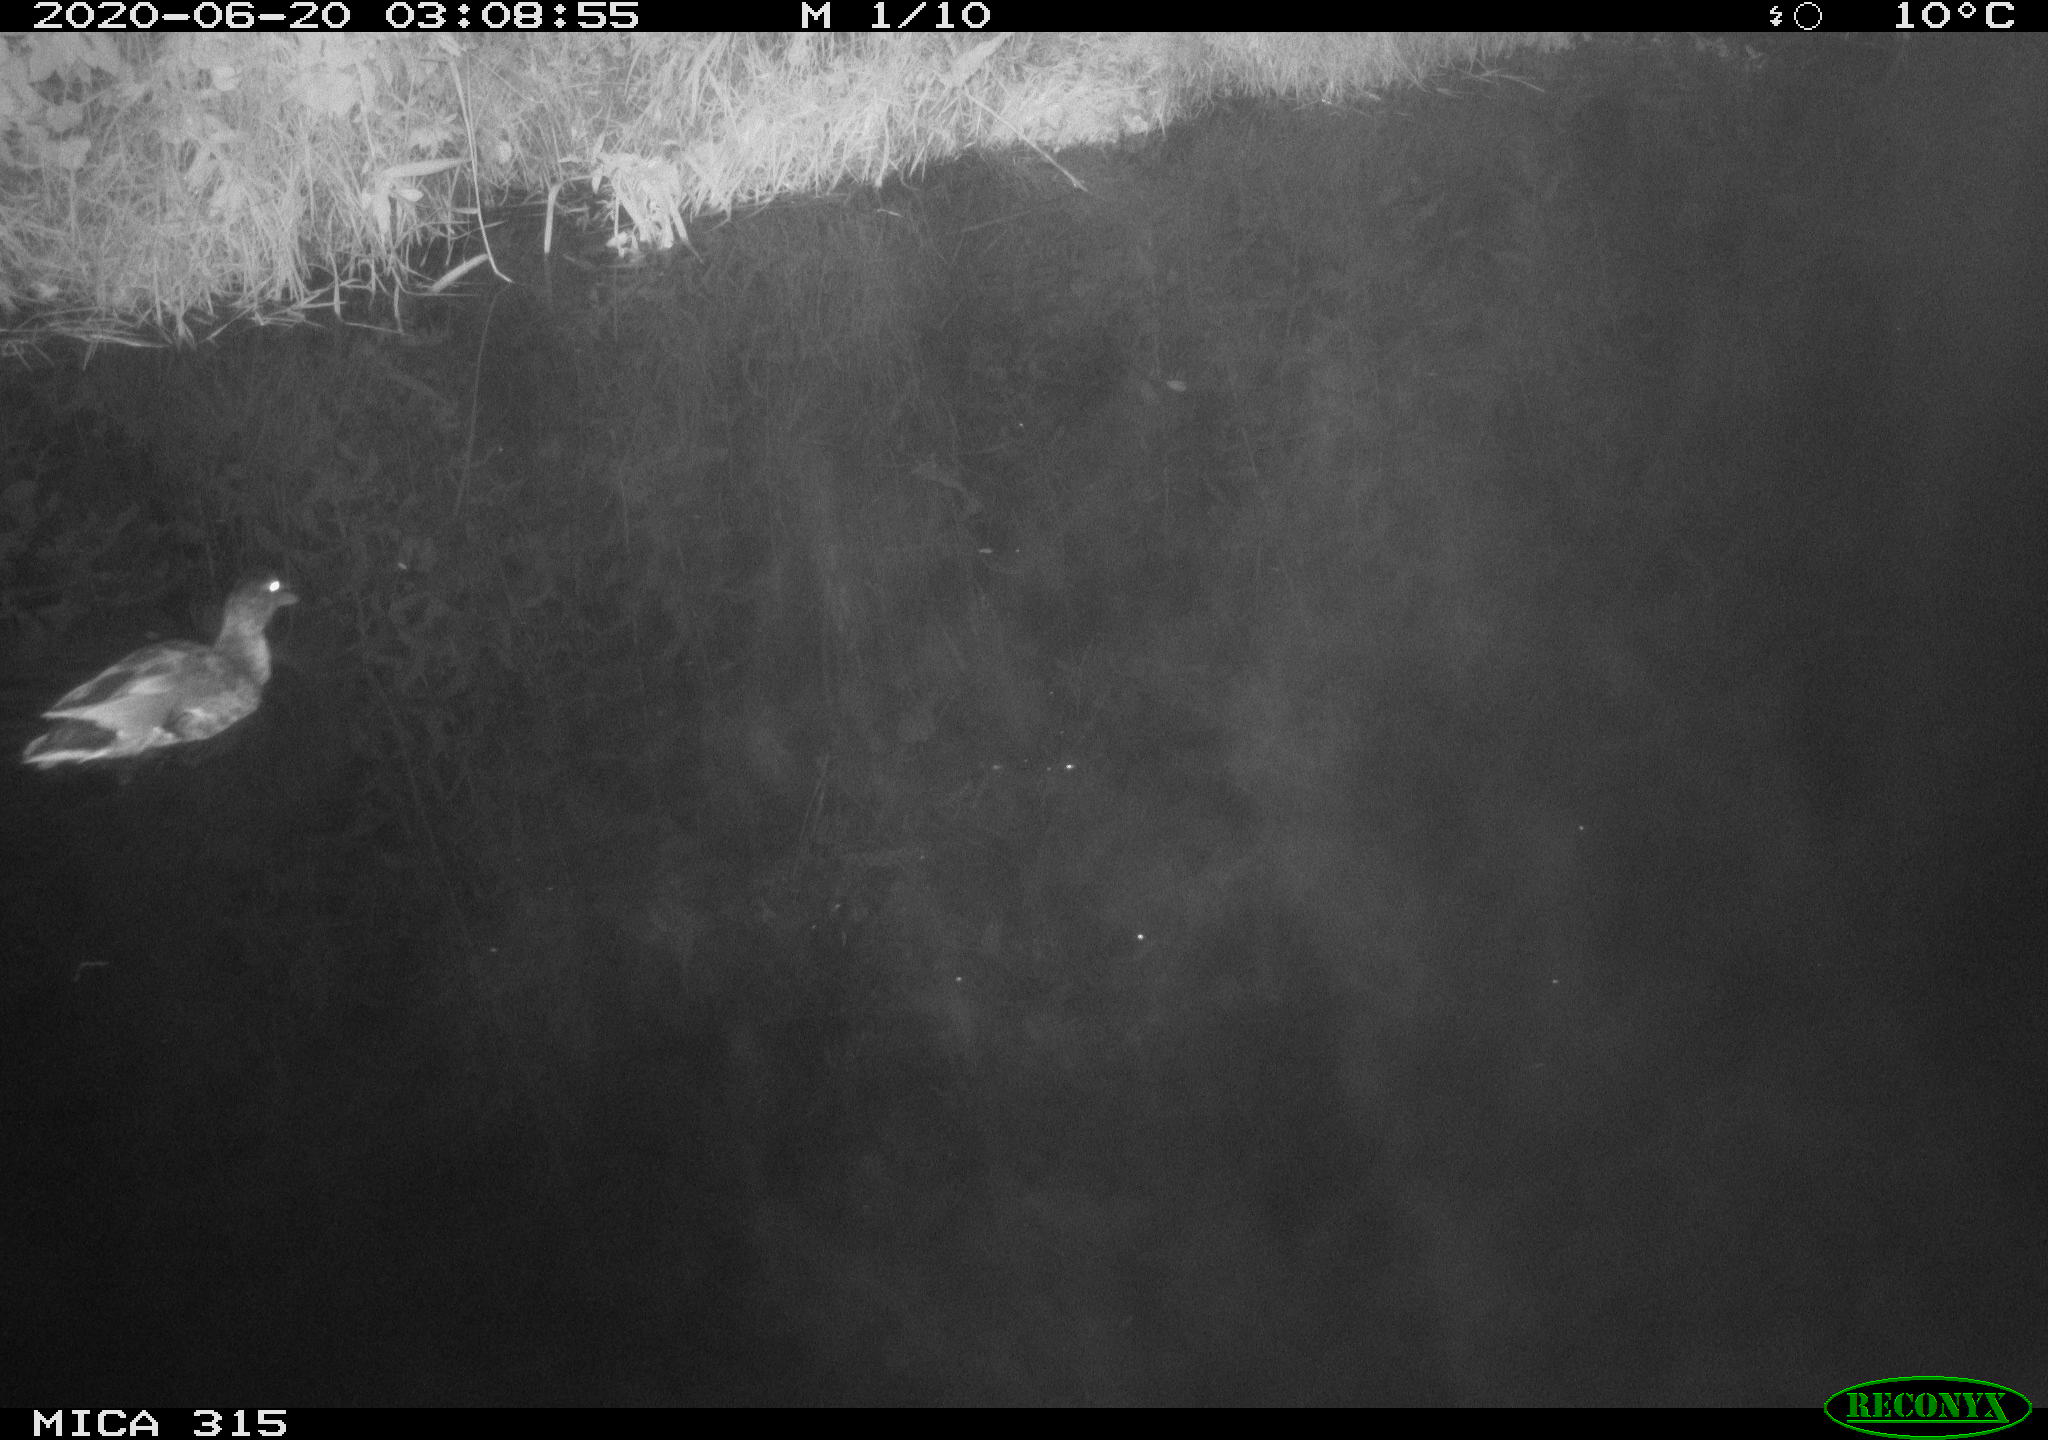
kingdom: Animalia
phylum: Chordata
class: Aves
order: Anseriformes
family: Anatidae
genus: Anas
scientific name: Anas platyrhynchos
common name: Mallard
